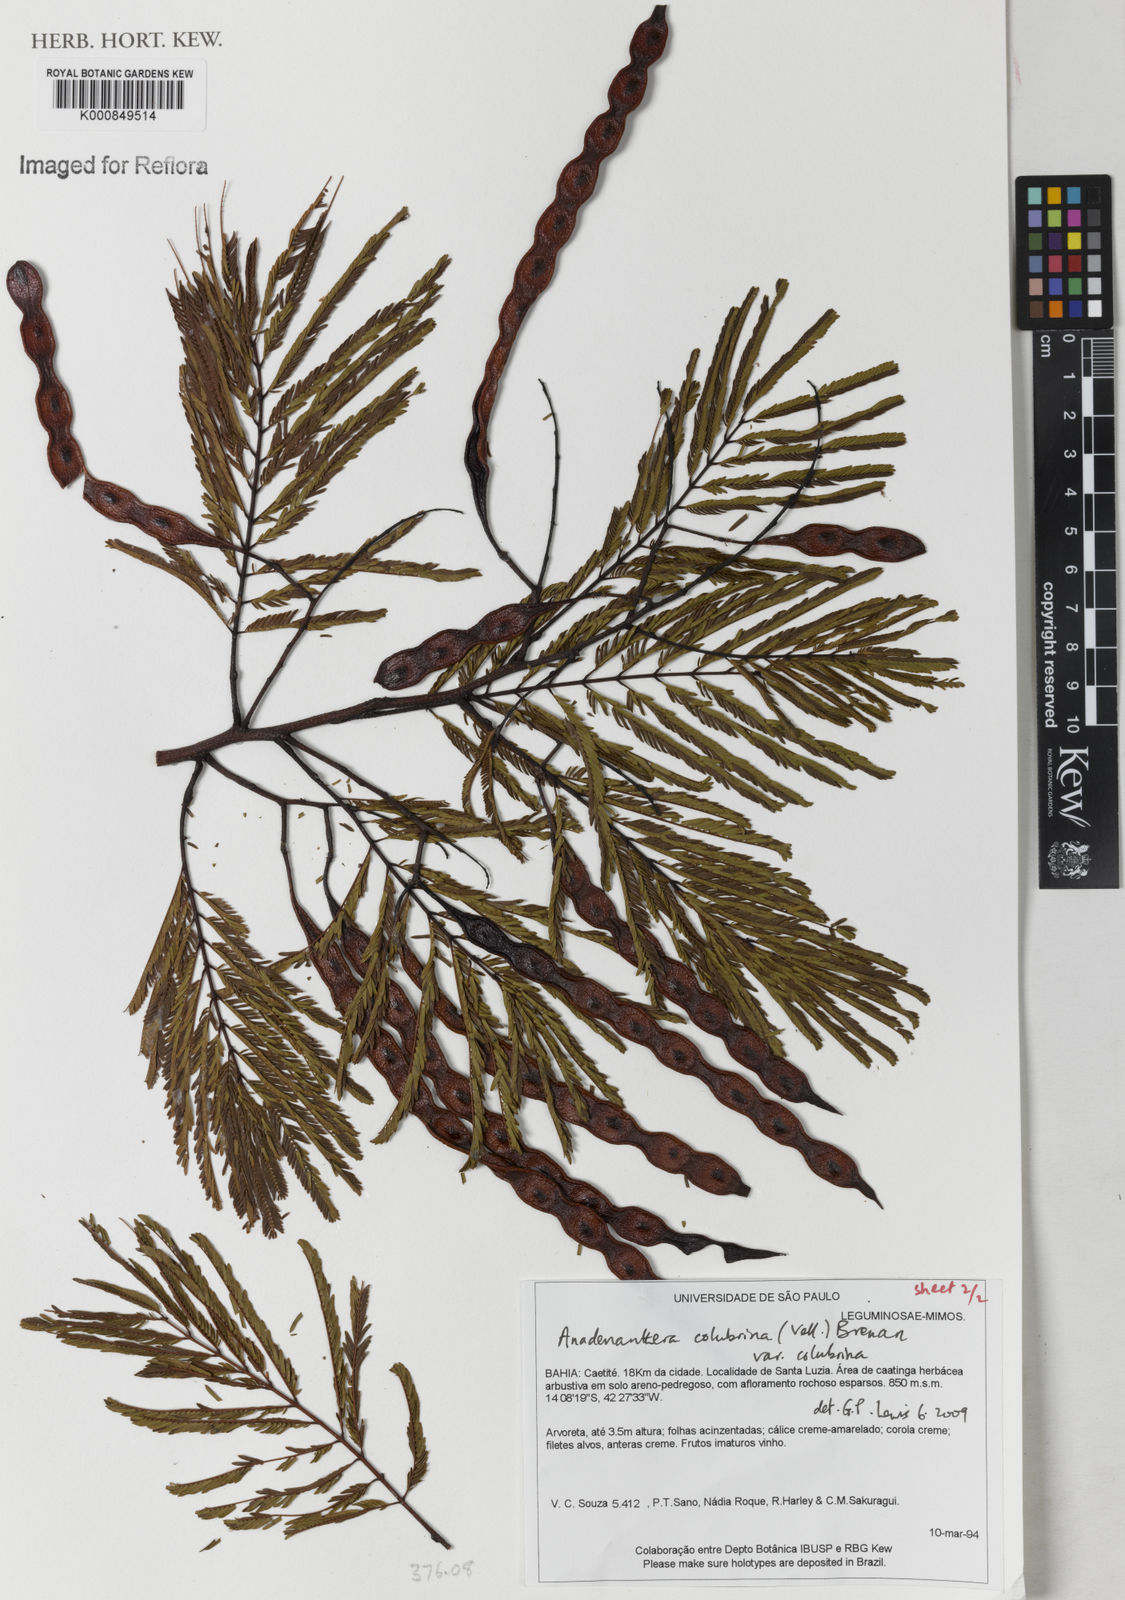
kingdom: Plantae
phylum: Tracheophyta
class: Magnoliopsida
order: Fabales
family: Fabaceae
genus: Anadenanthera
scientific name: Anadenanthera colubrina
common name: Curupay
